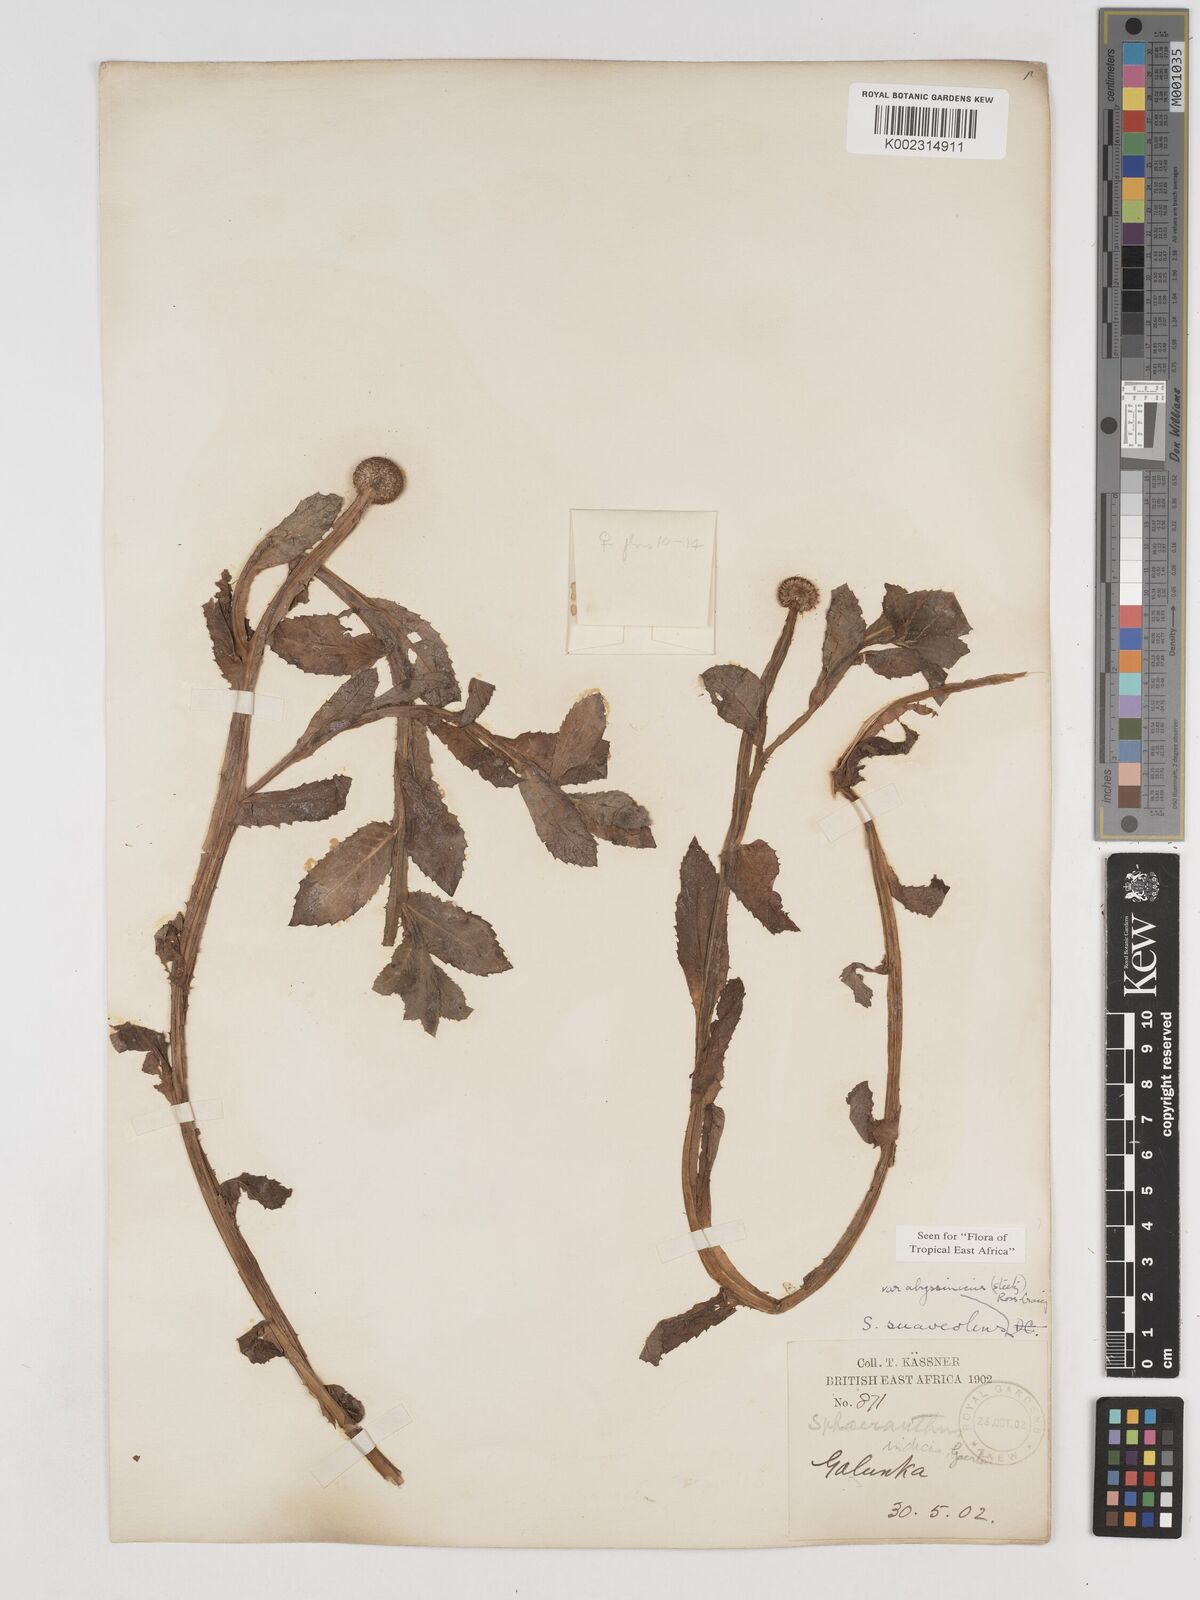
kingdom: Plantae
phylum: Tracheophyta
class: Magnoliopsida
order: Asterales
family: Asteraceae
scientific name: Asteraceae
